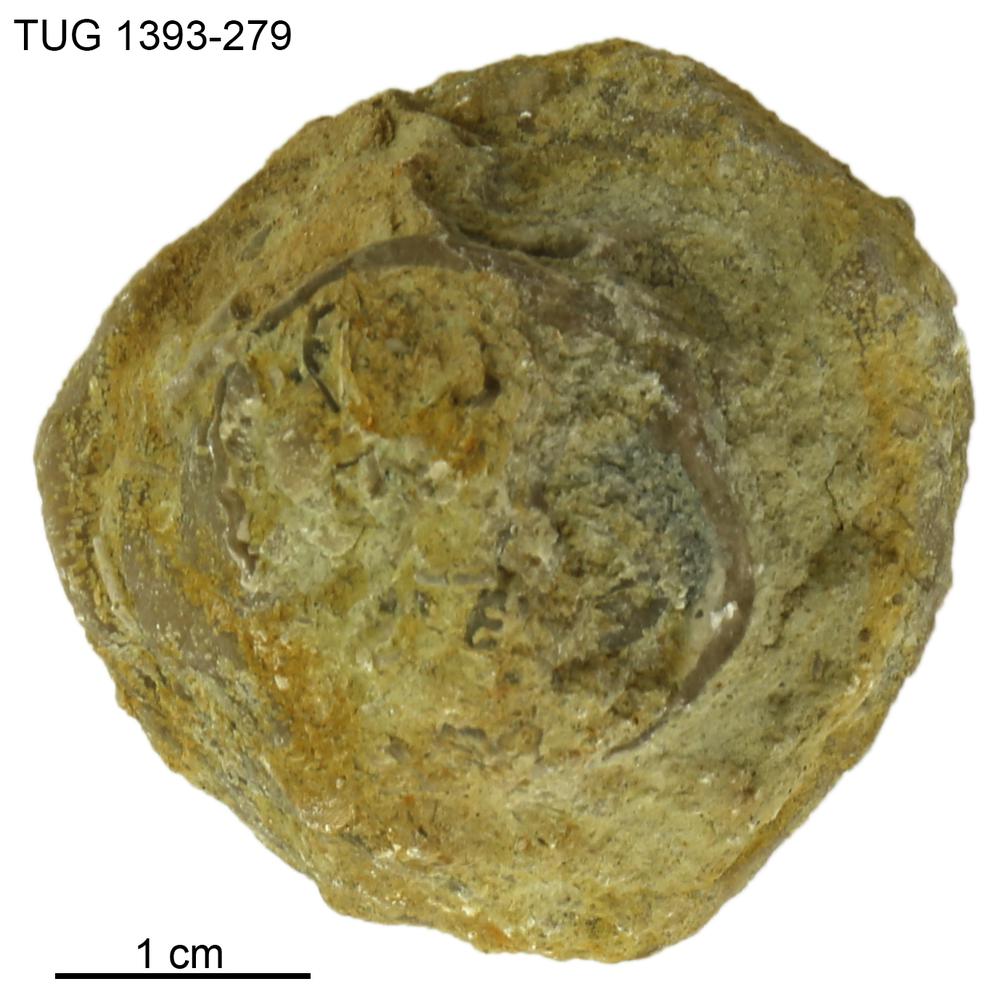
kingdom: Animalia
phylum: Bryozoa
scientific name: Bryozoa
